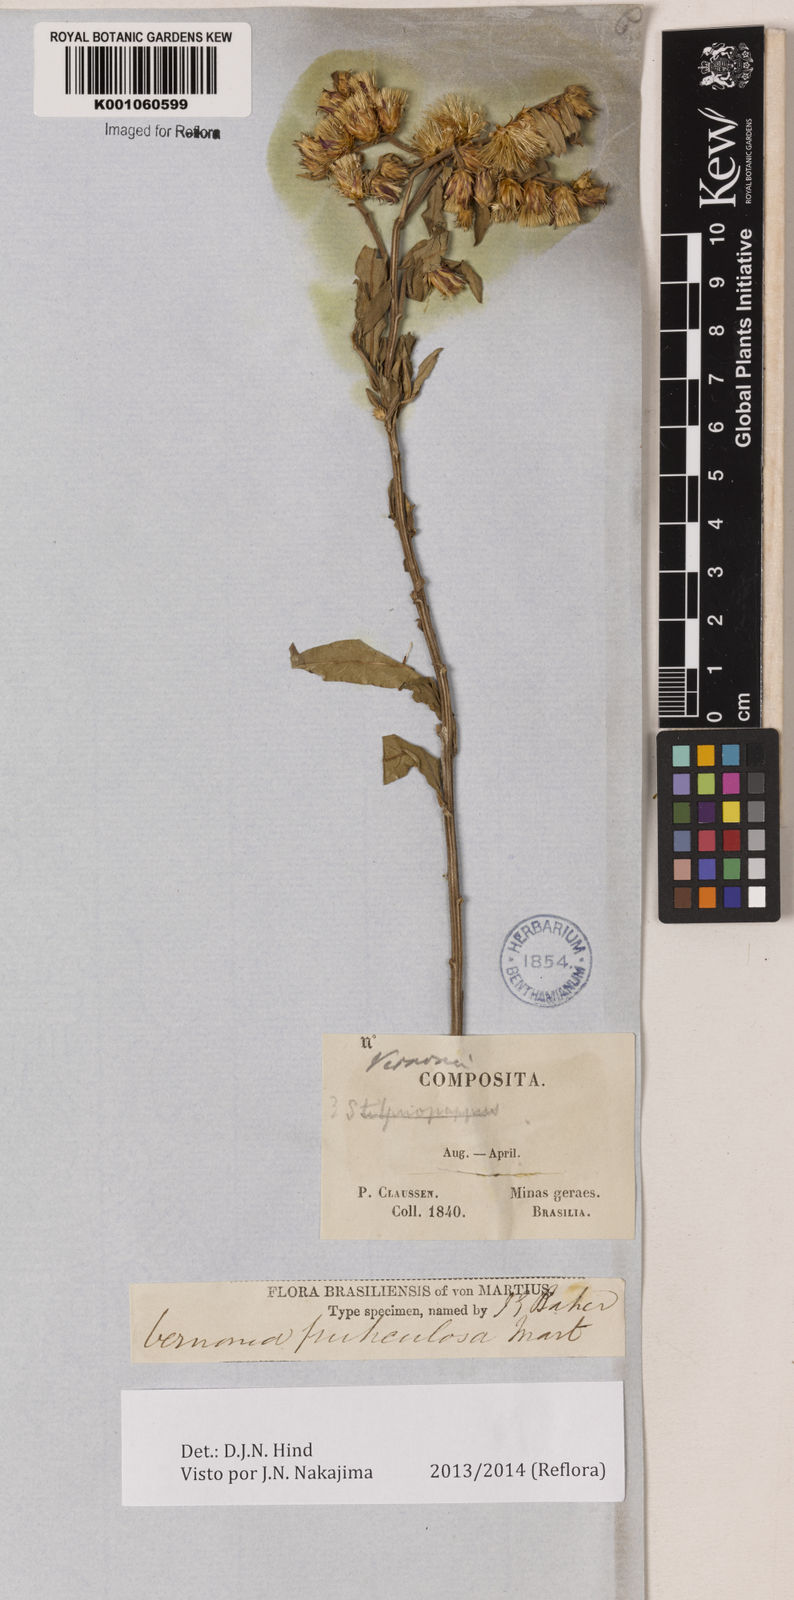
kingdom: Plantae
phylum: Tracheophyta
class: Magnoliopsida
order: Asterales
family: Asteraceae
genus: Lepidaploa
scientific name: Lepidaploa rufogrisea
